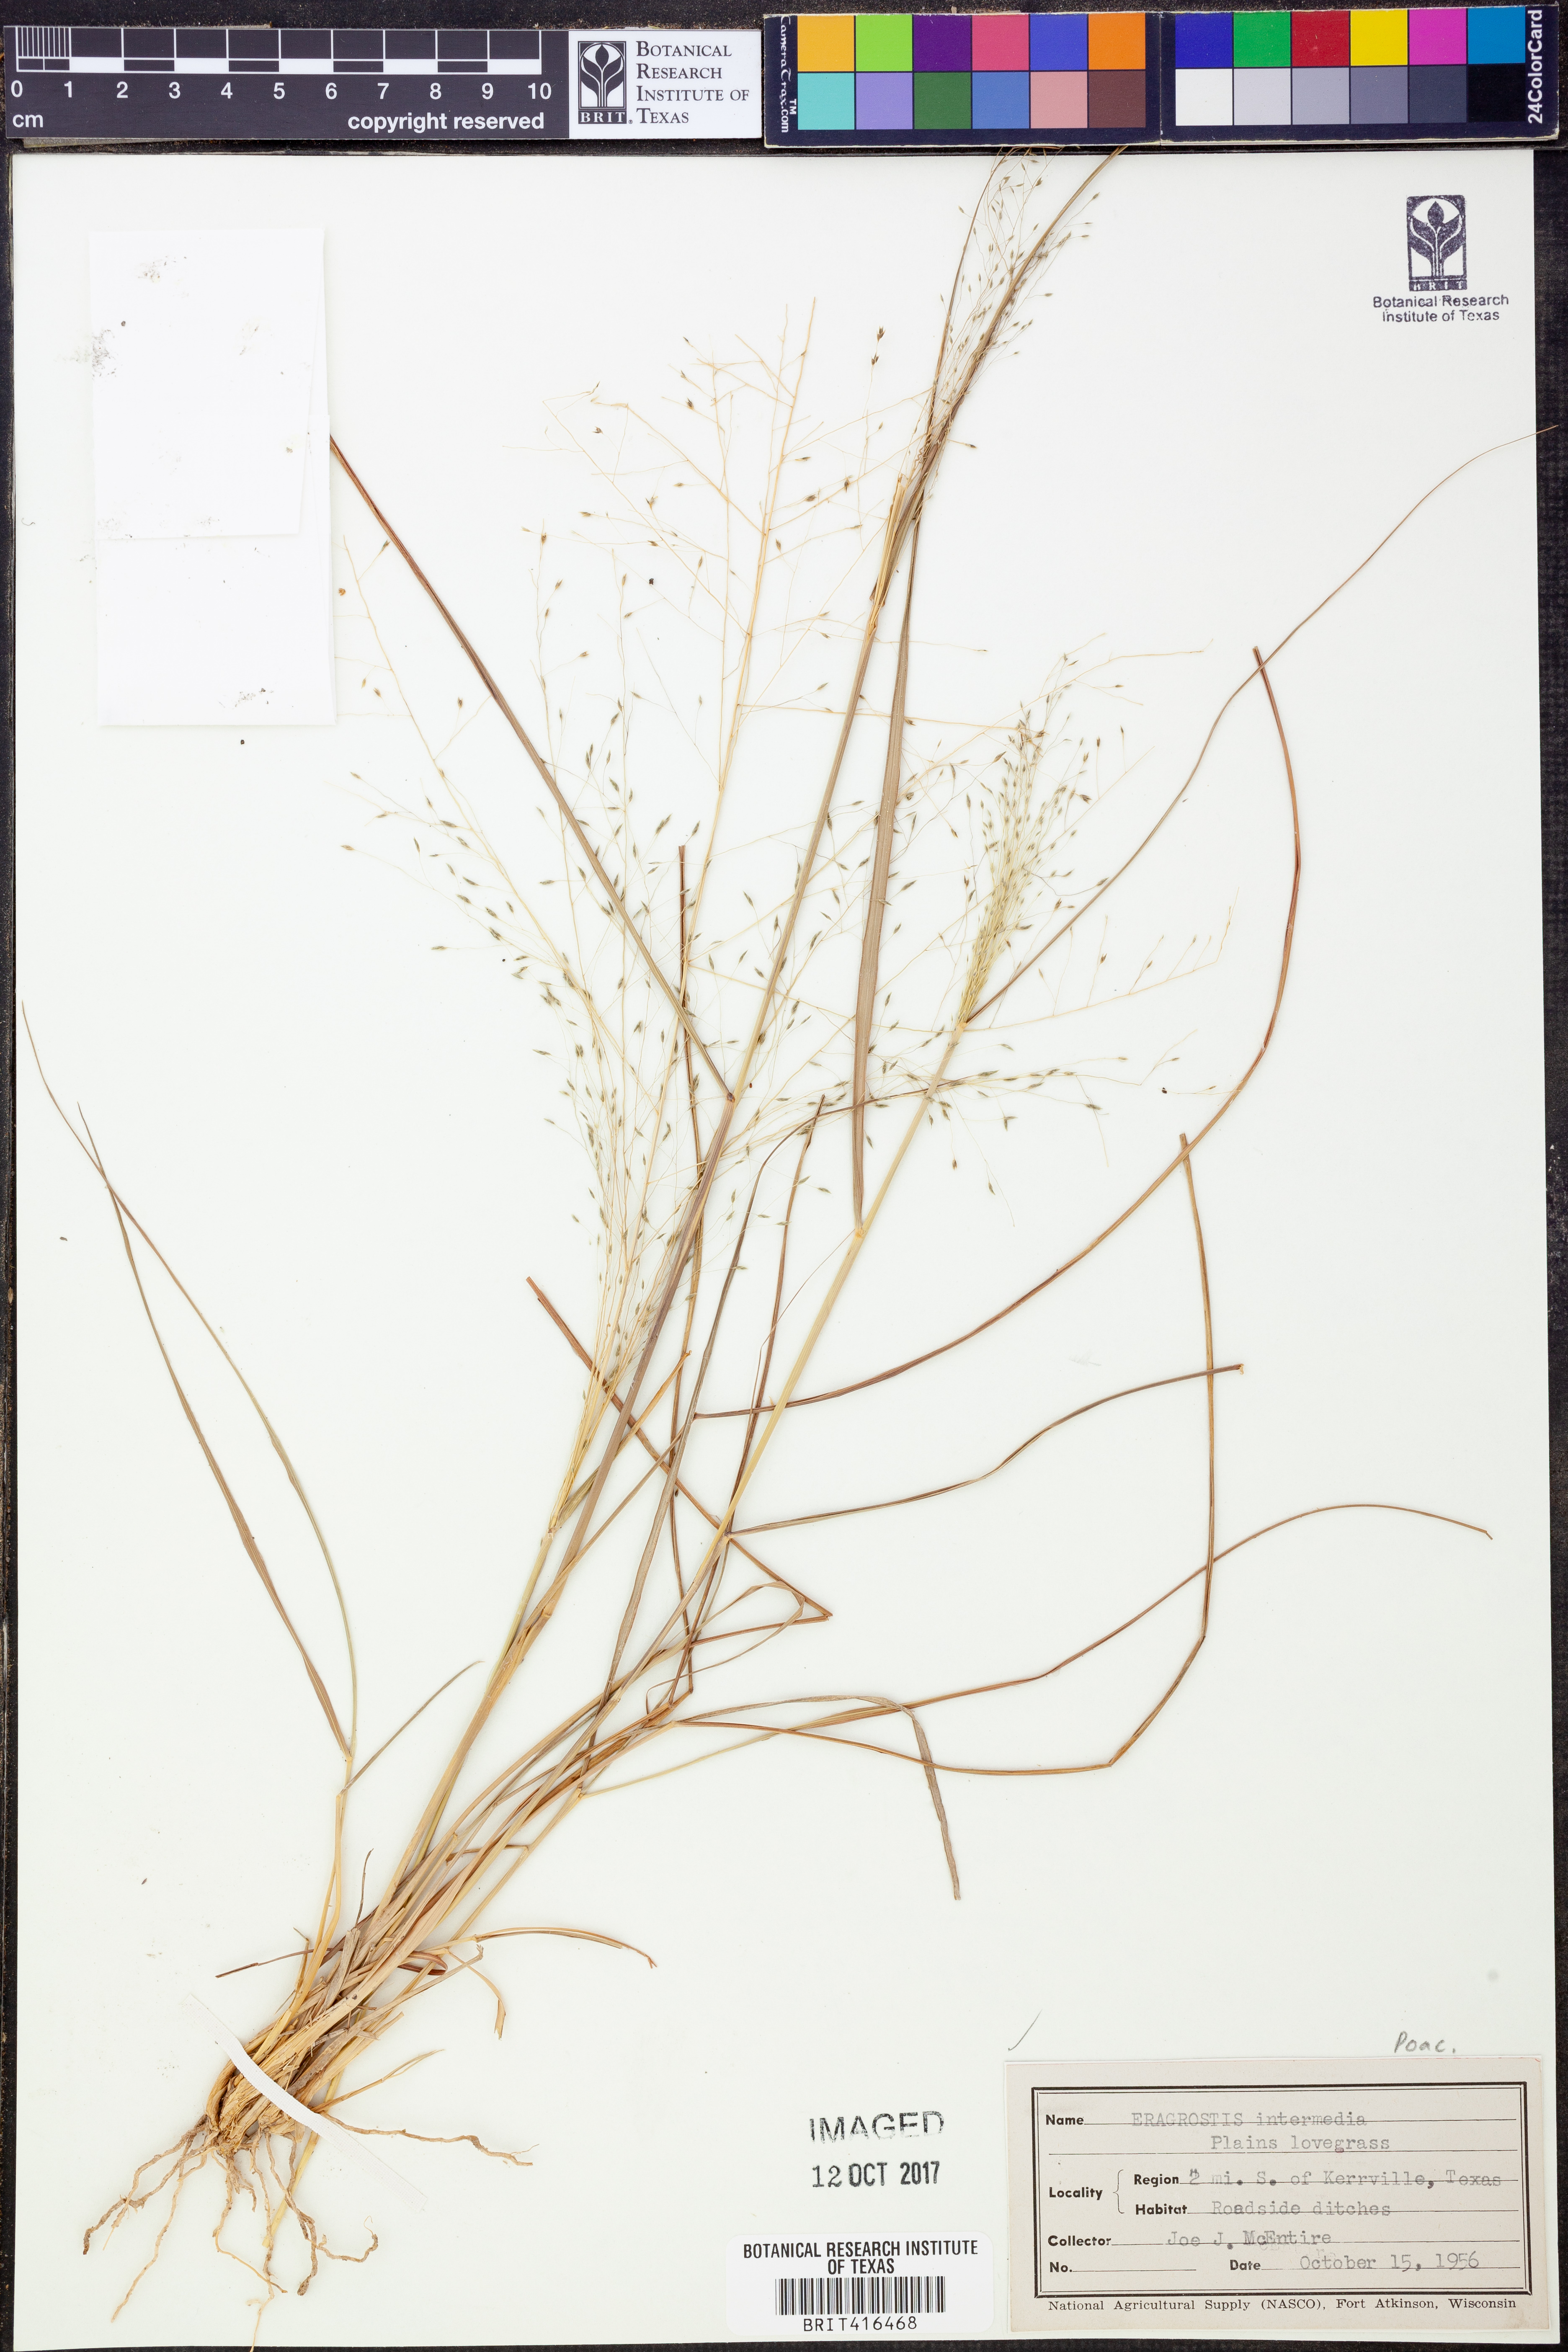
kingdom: Plantae
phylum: Tracheophyta
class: Liliopsida
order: Poales
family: Poaceae
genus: Eragrostis
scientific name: Eragrostis intermedia
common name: Plains love grass
